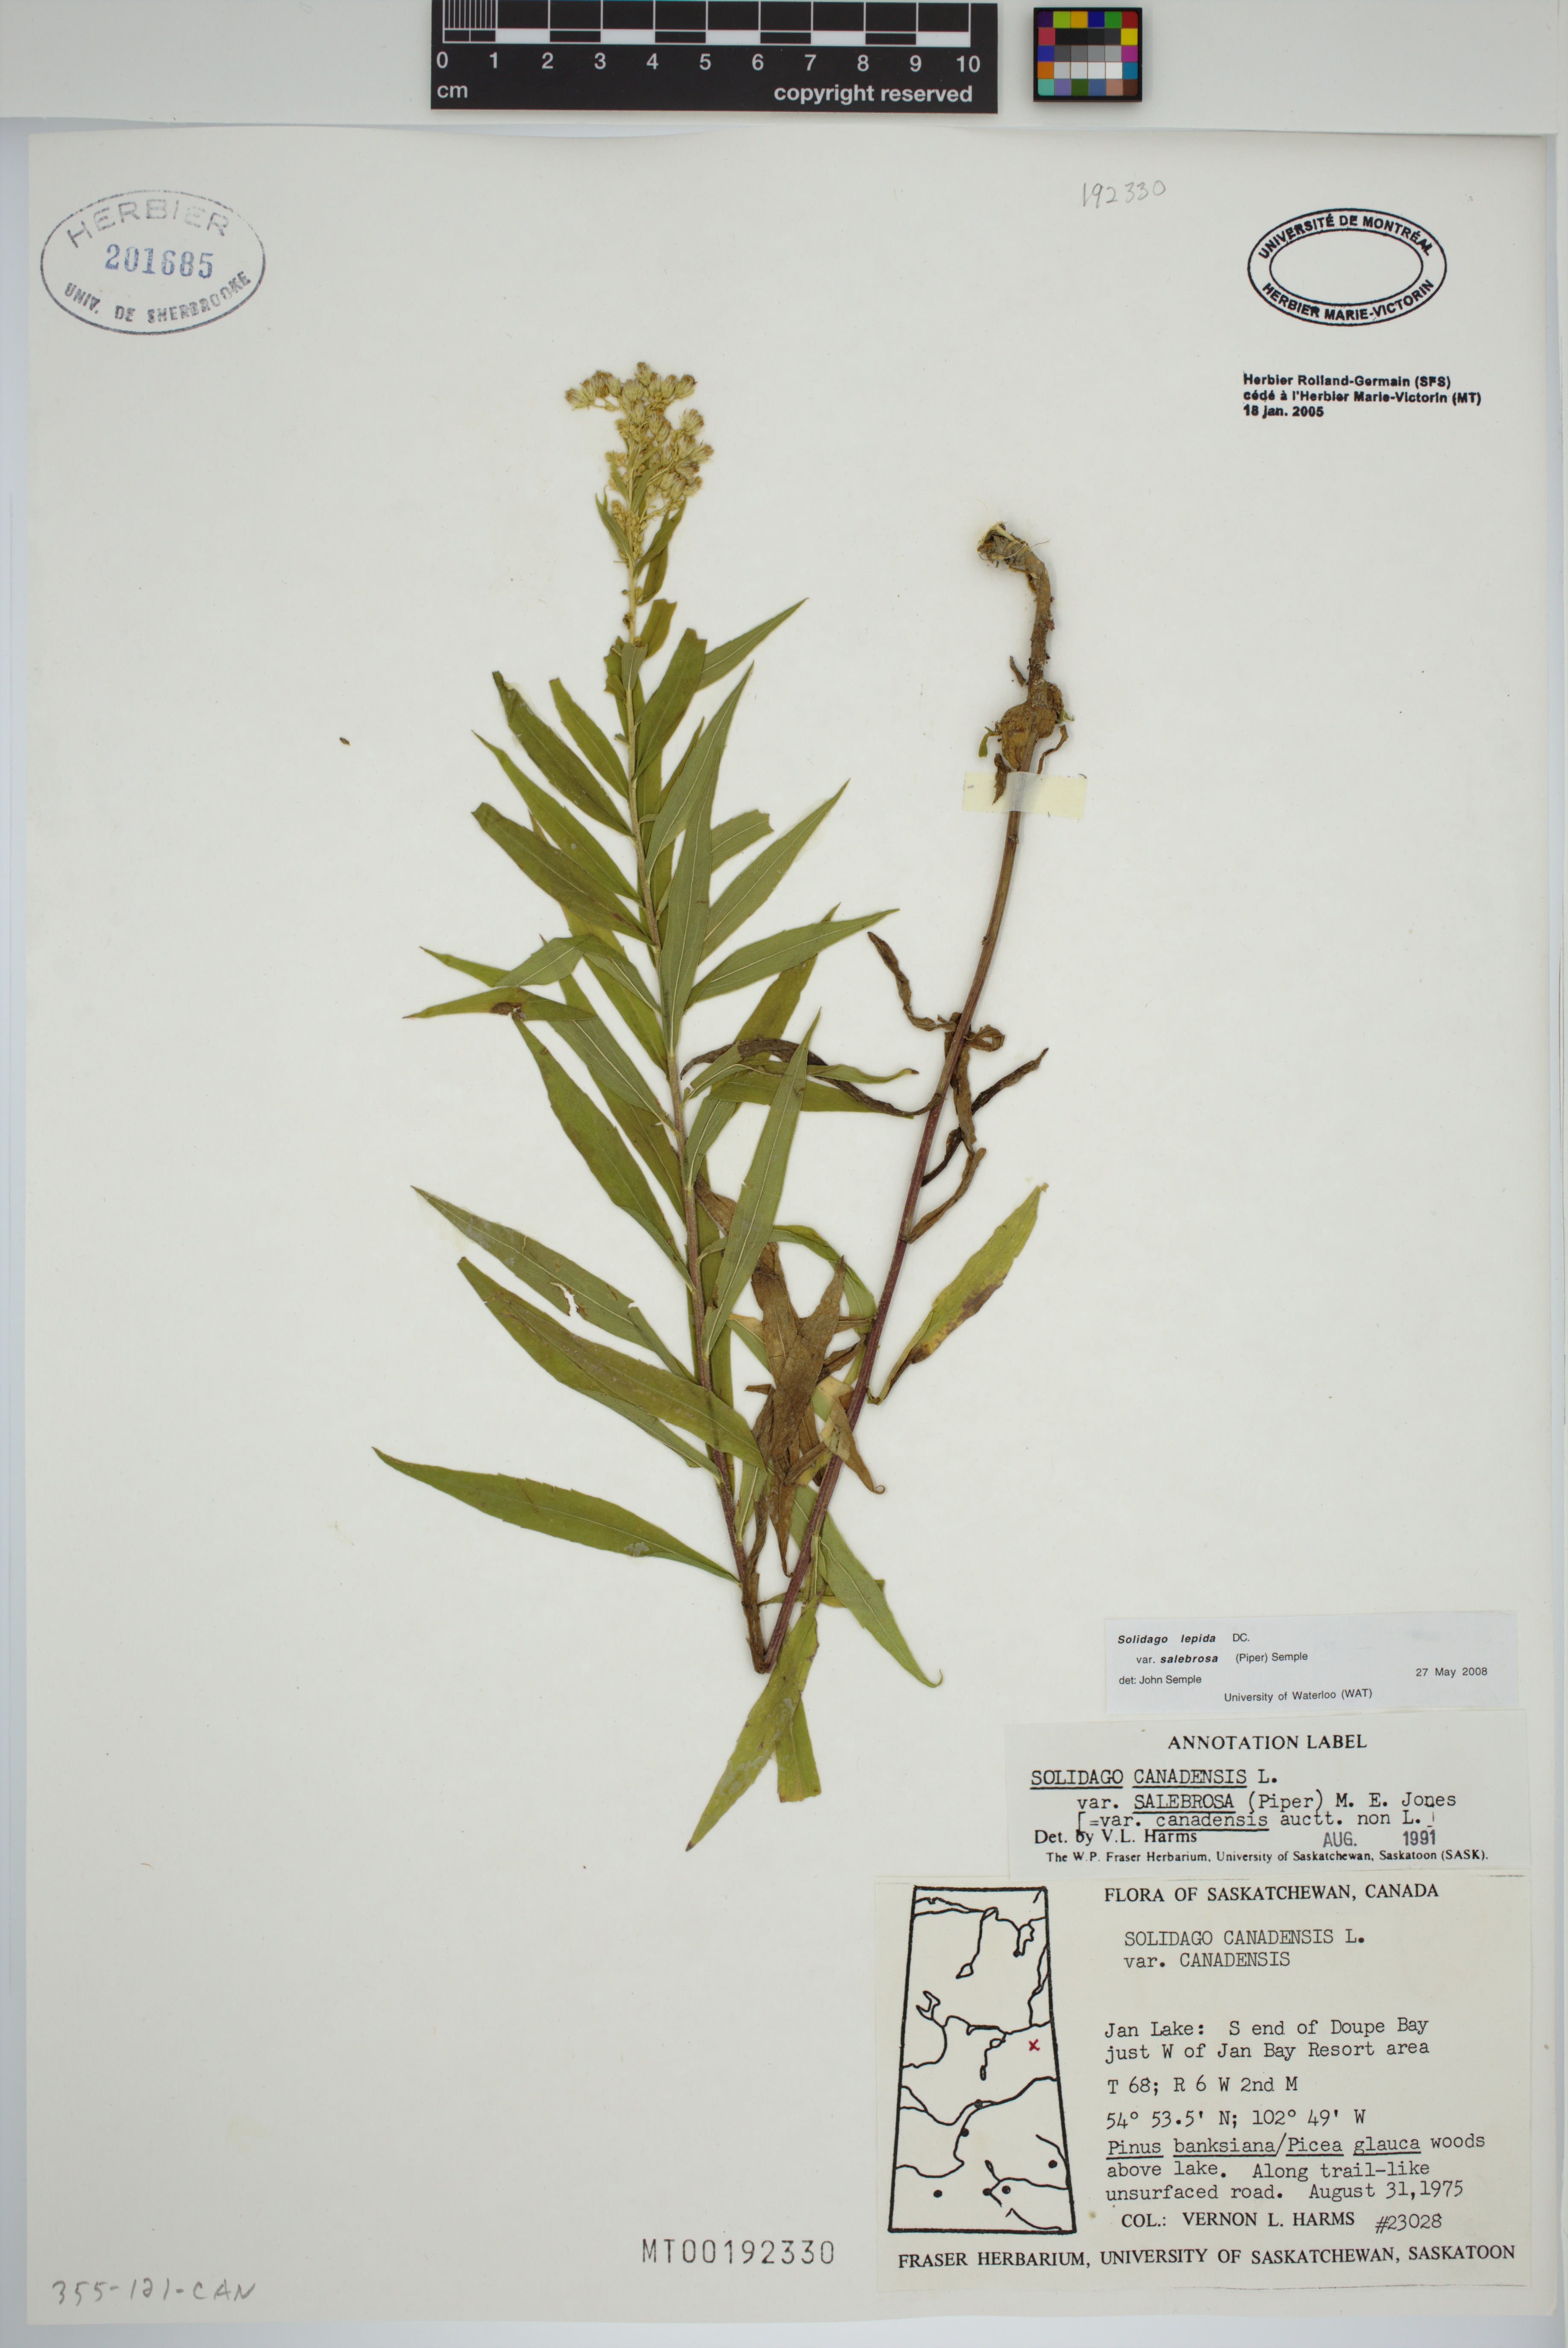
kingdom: Plantae
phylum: Tracheophyta
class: Magnoliopsida
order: Asterales
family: Asteraceae
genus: Solidago
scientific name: Solidago lepida
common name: Western canada goldenrod
